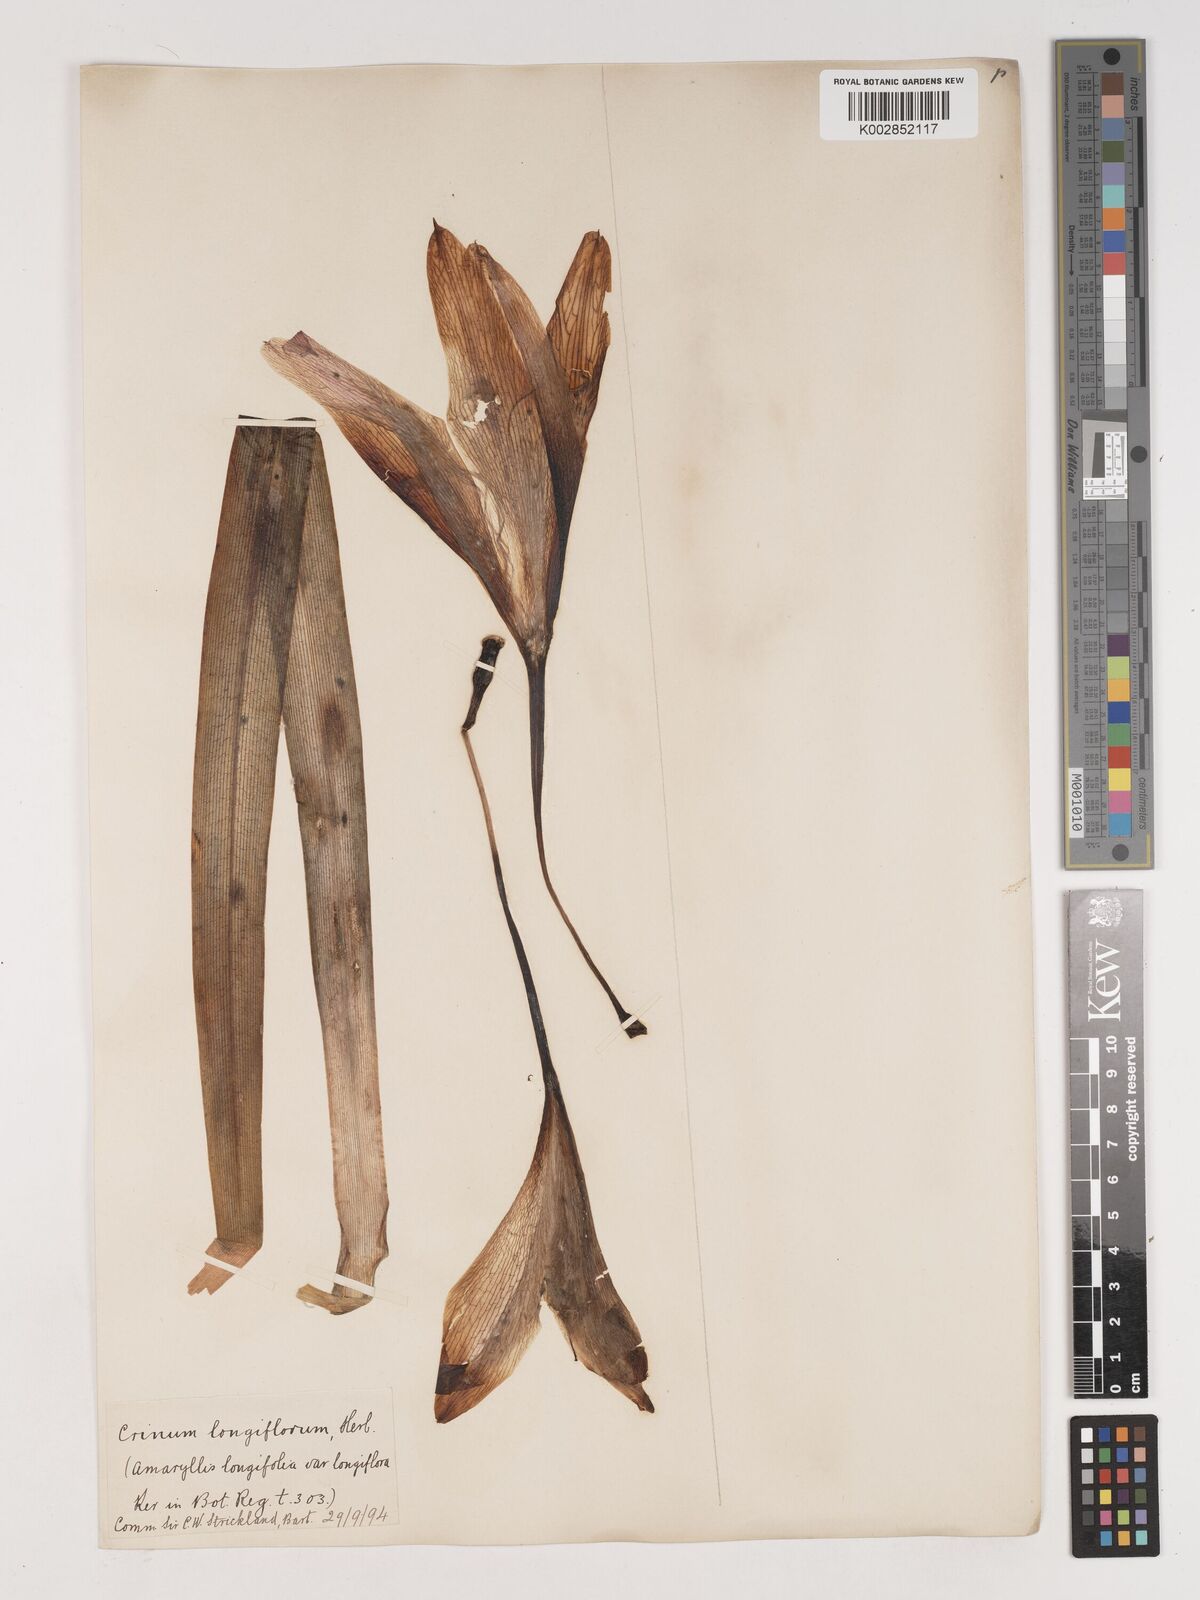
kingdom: Plantae
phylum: Tracheophyta
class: Liliopsida
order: Asparagales
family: Amaryllidaceae
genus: Ammocharis
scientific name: Ammocharis longifolia
